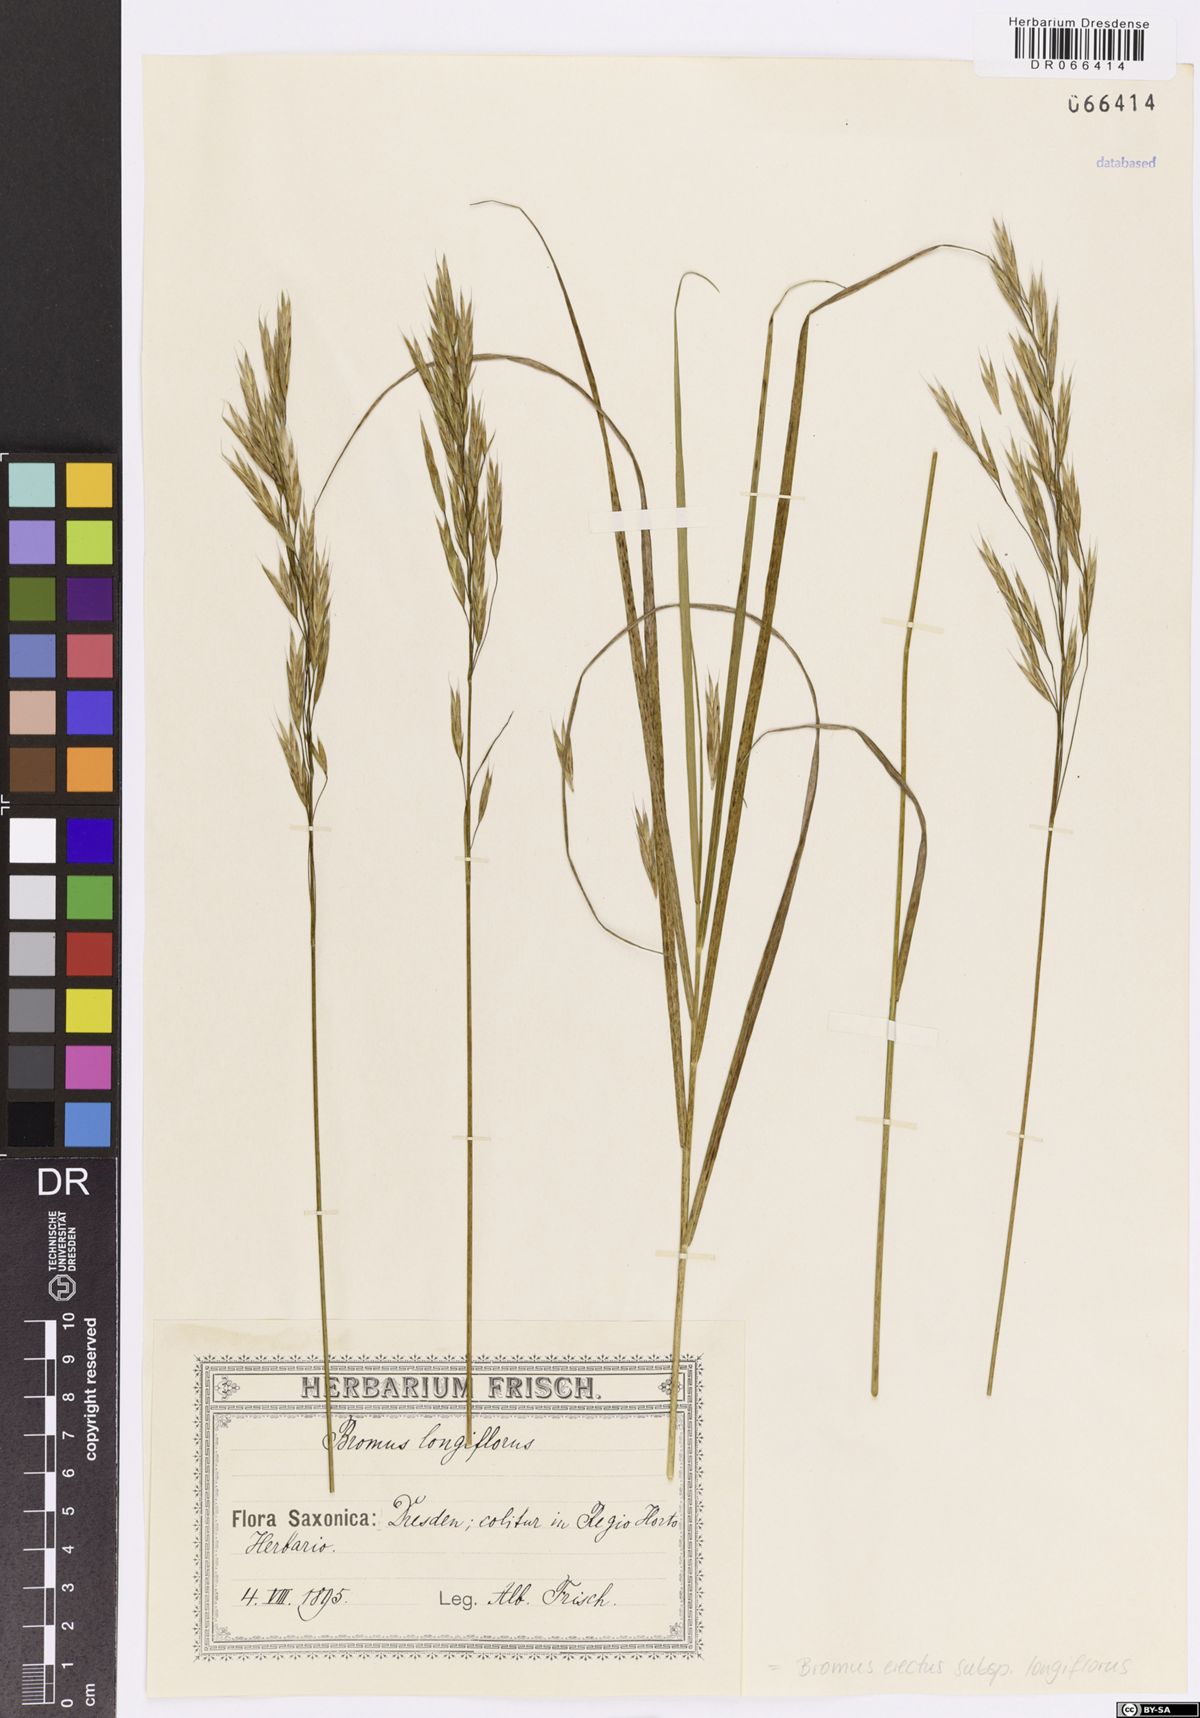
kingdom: Plantae
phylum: Tracheophyta
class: Liliopsida
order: Poales
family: Poaceae
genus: Bromus
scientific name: Bromus erectus
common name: Erect brome
